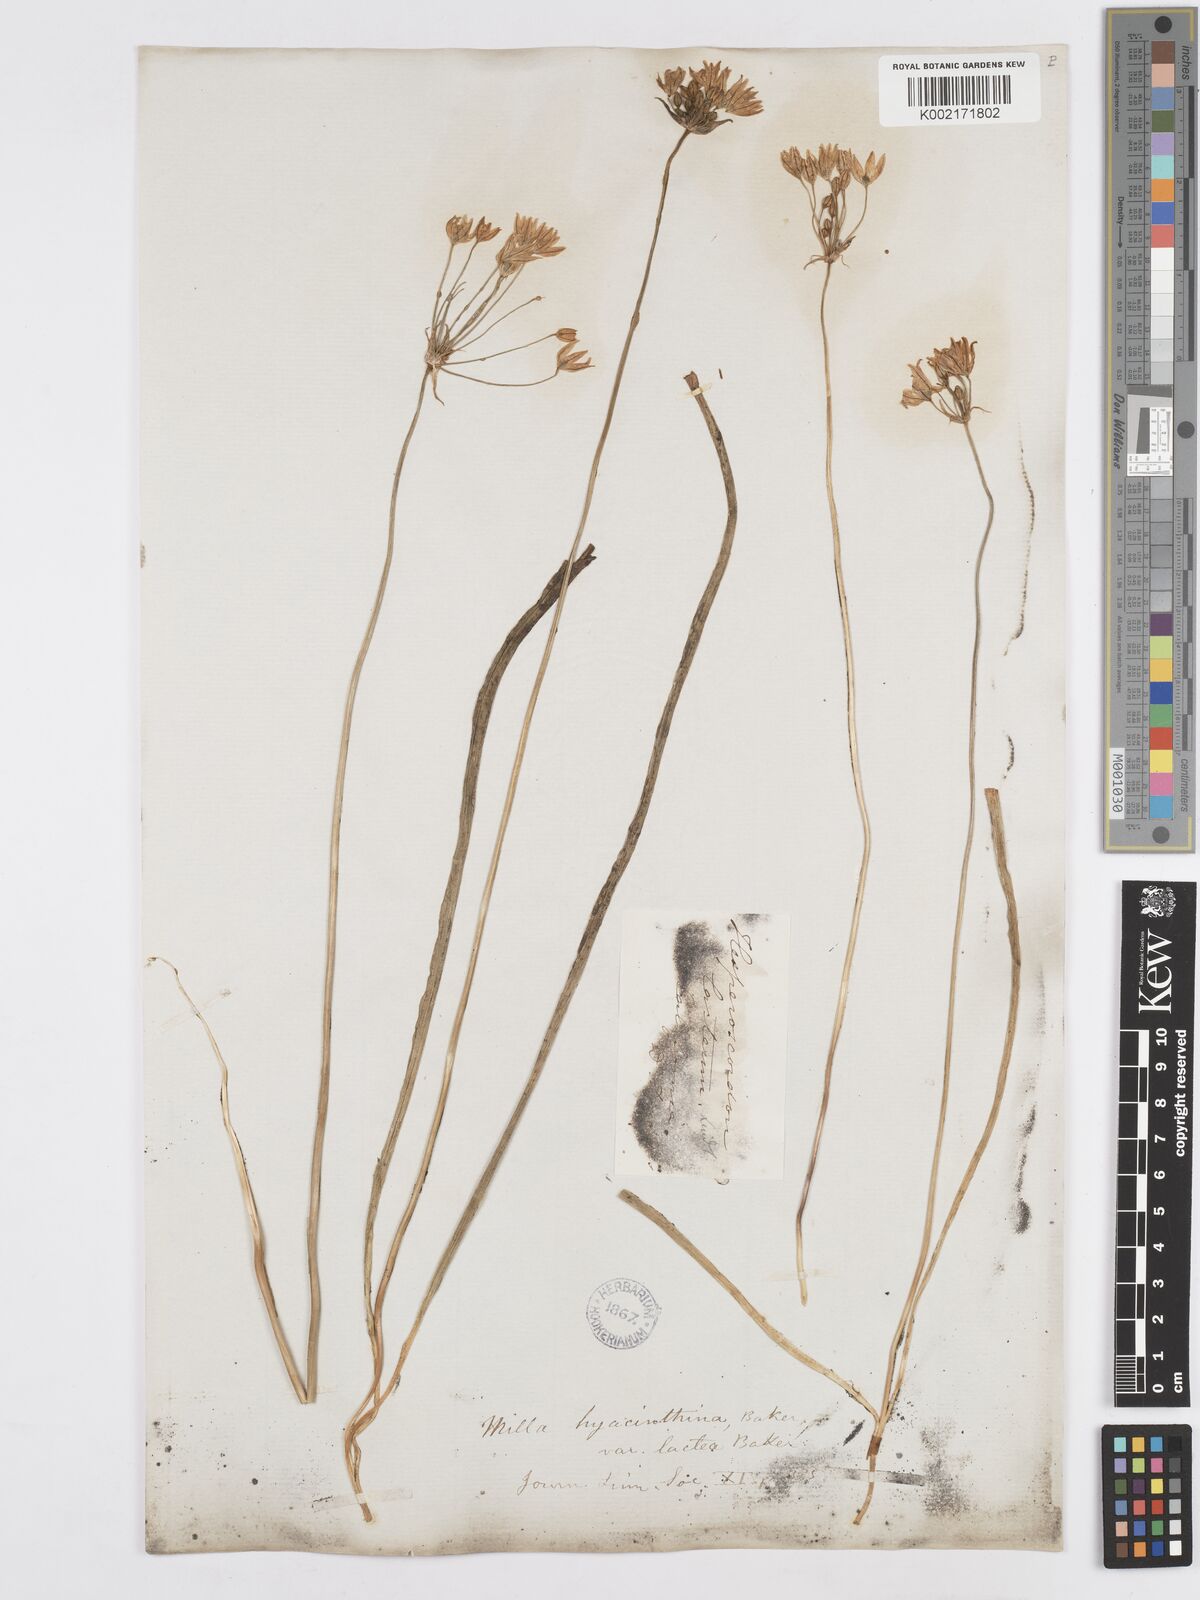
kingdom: Plantae
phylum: Tracheophyta
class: Liliopsida
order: Asparagales
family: Asparagaceae
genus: Triteleia
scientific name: Triteleia hyacinthina
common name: White brodiaea
